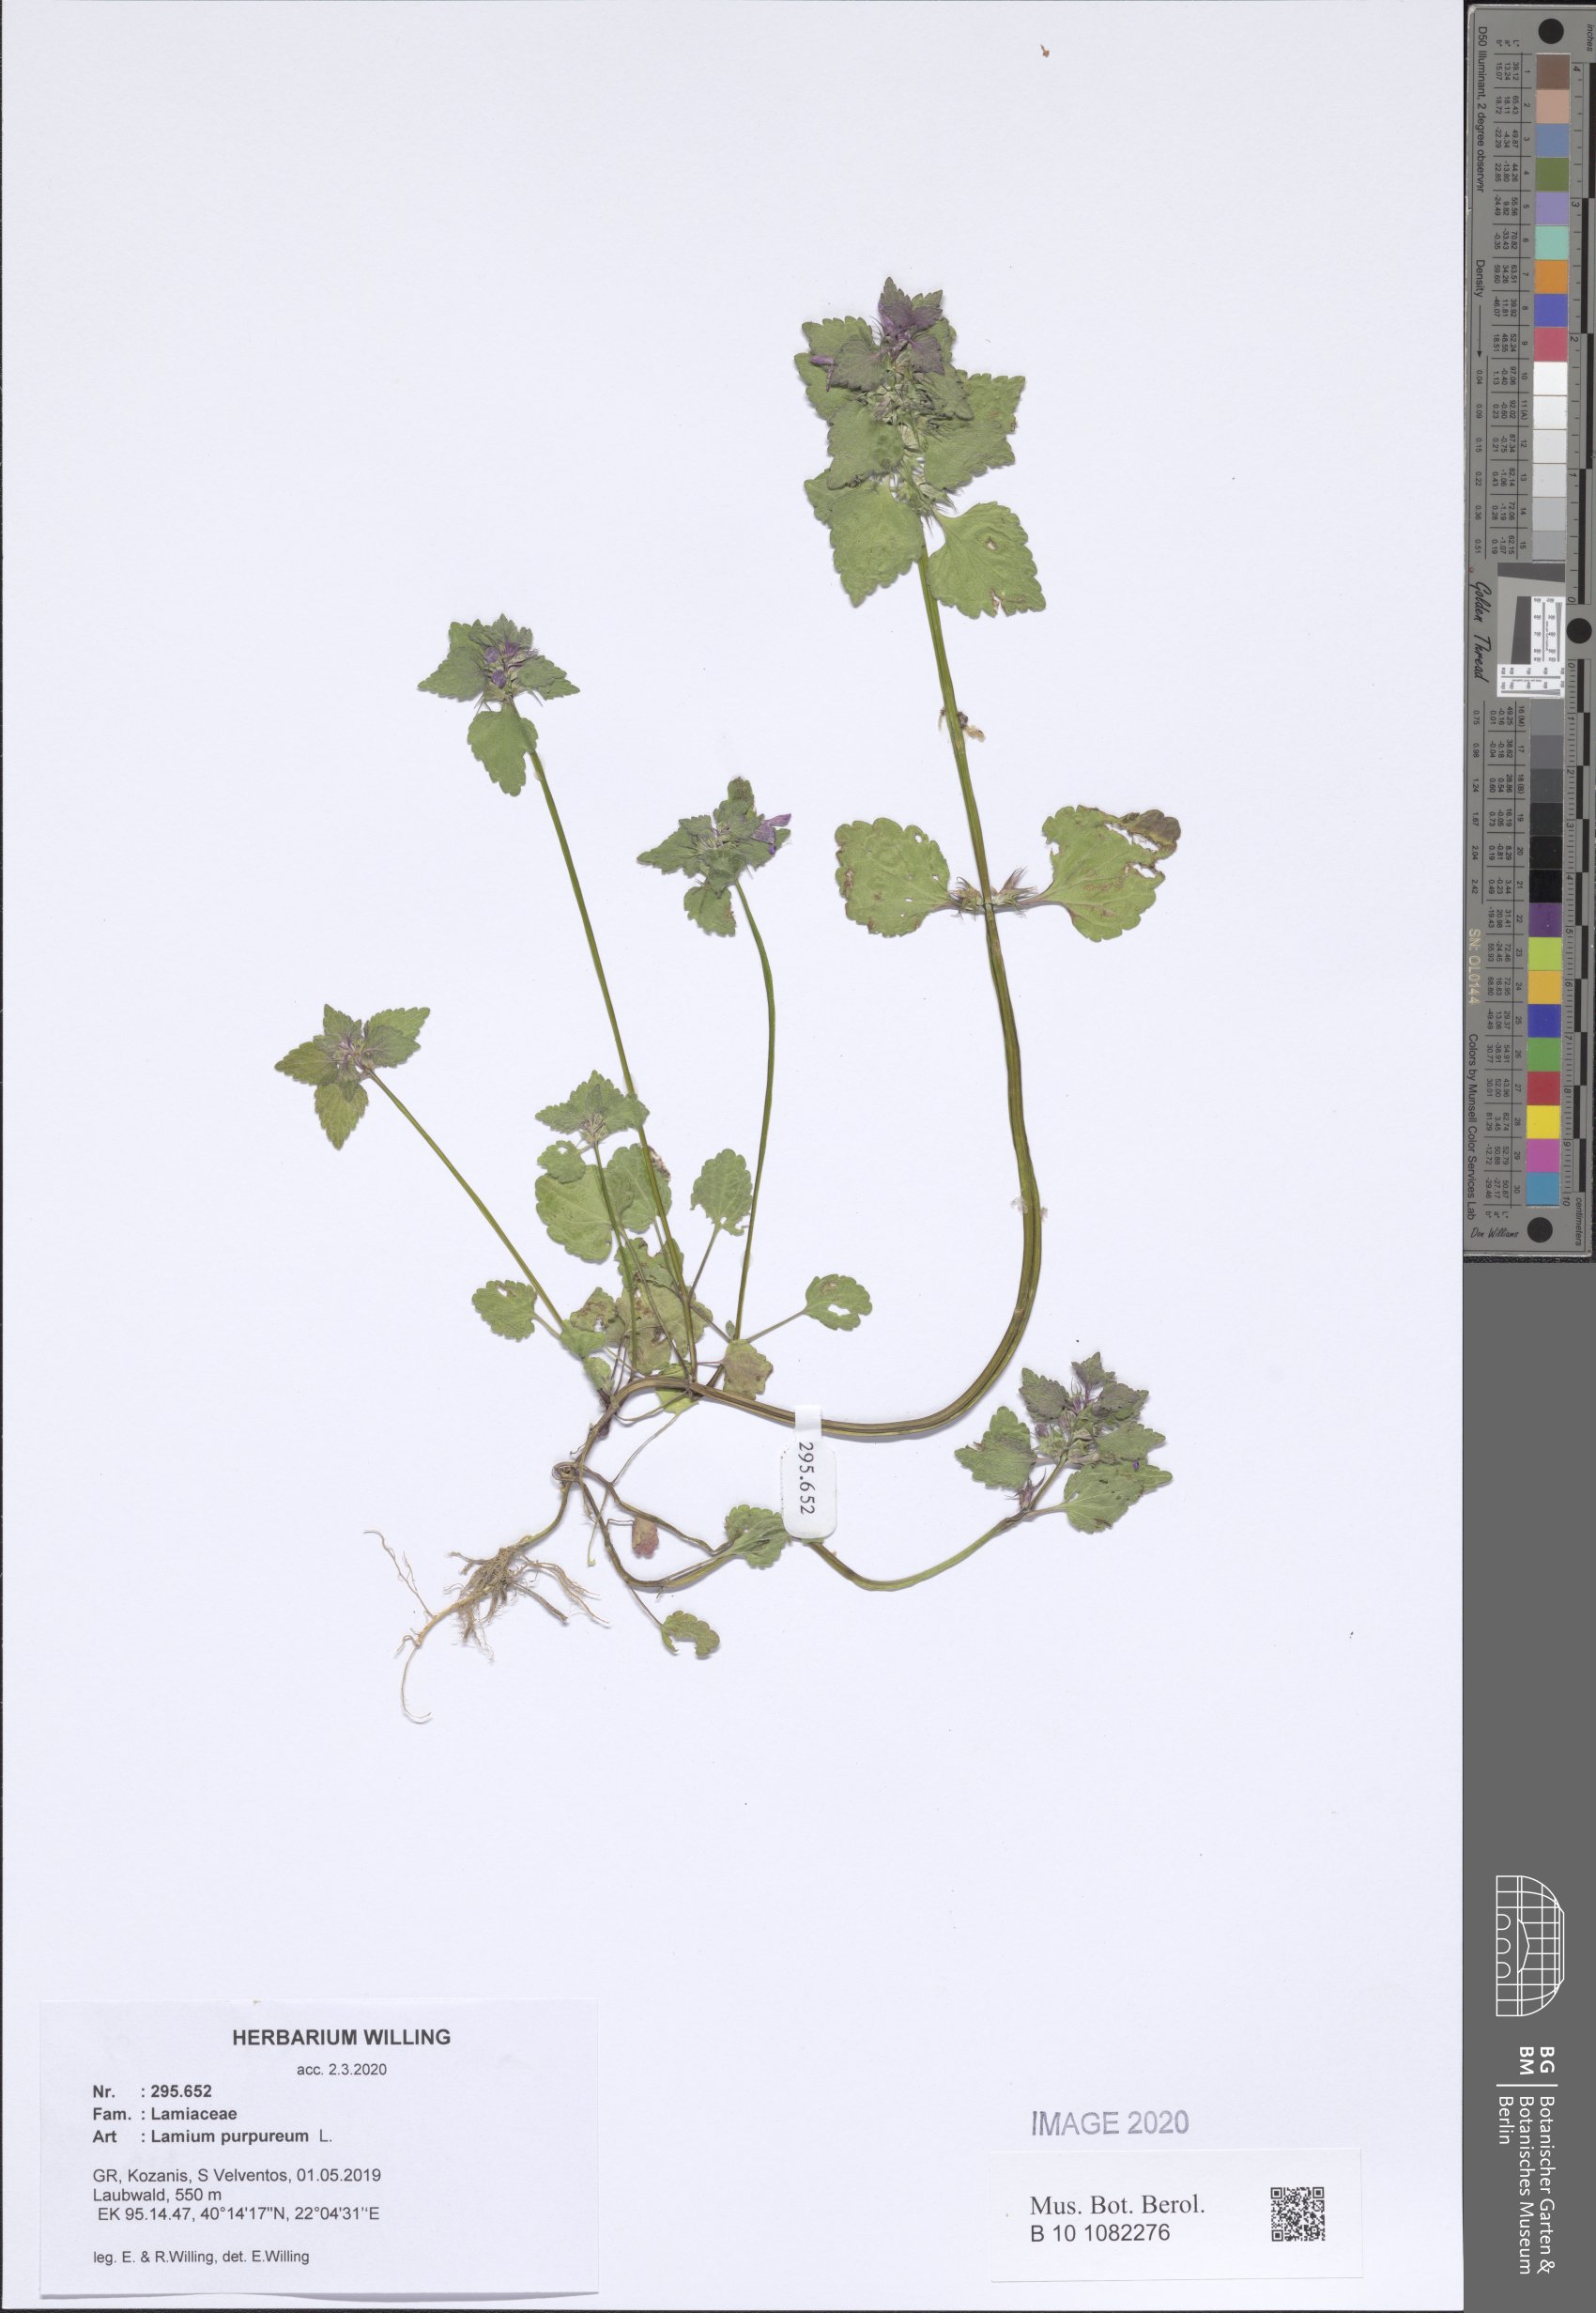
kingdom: Plantae
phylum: Tracheophyta
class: Magnoliopsida
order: Lamiales
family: Lamiaceae
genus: Lamium
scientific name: Lamium purpureum
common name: Red dead-nettle
